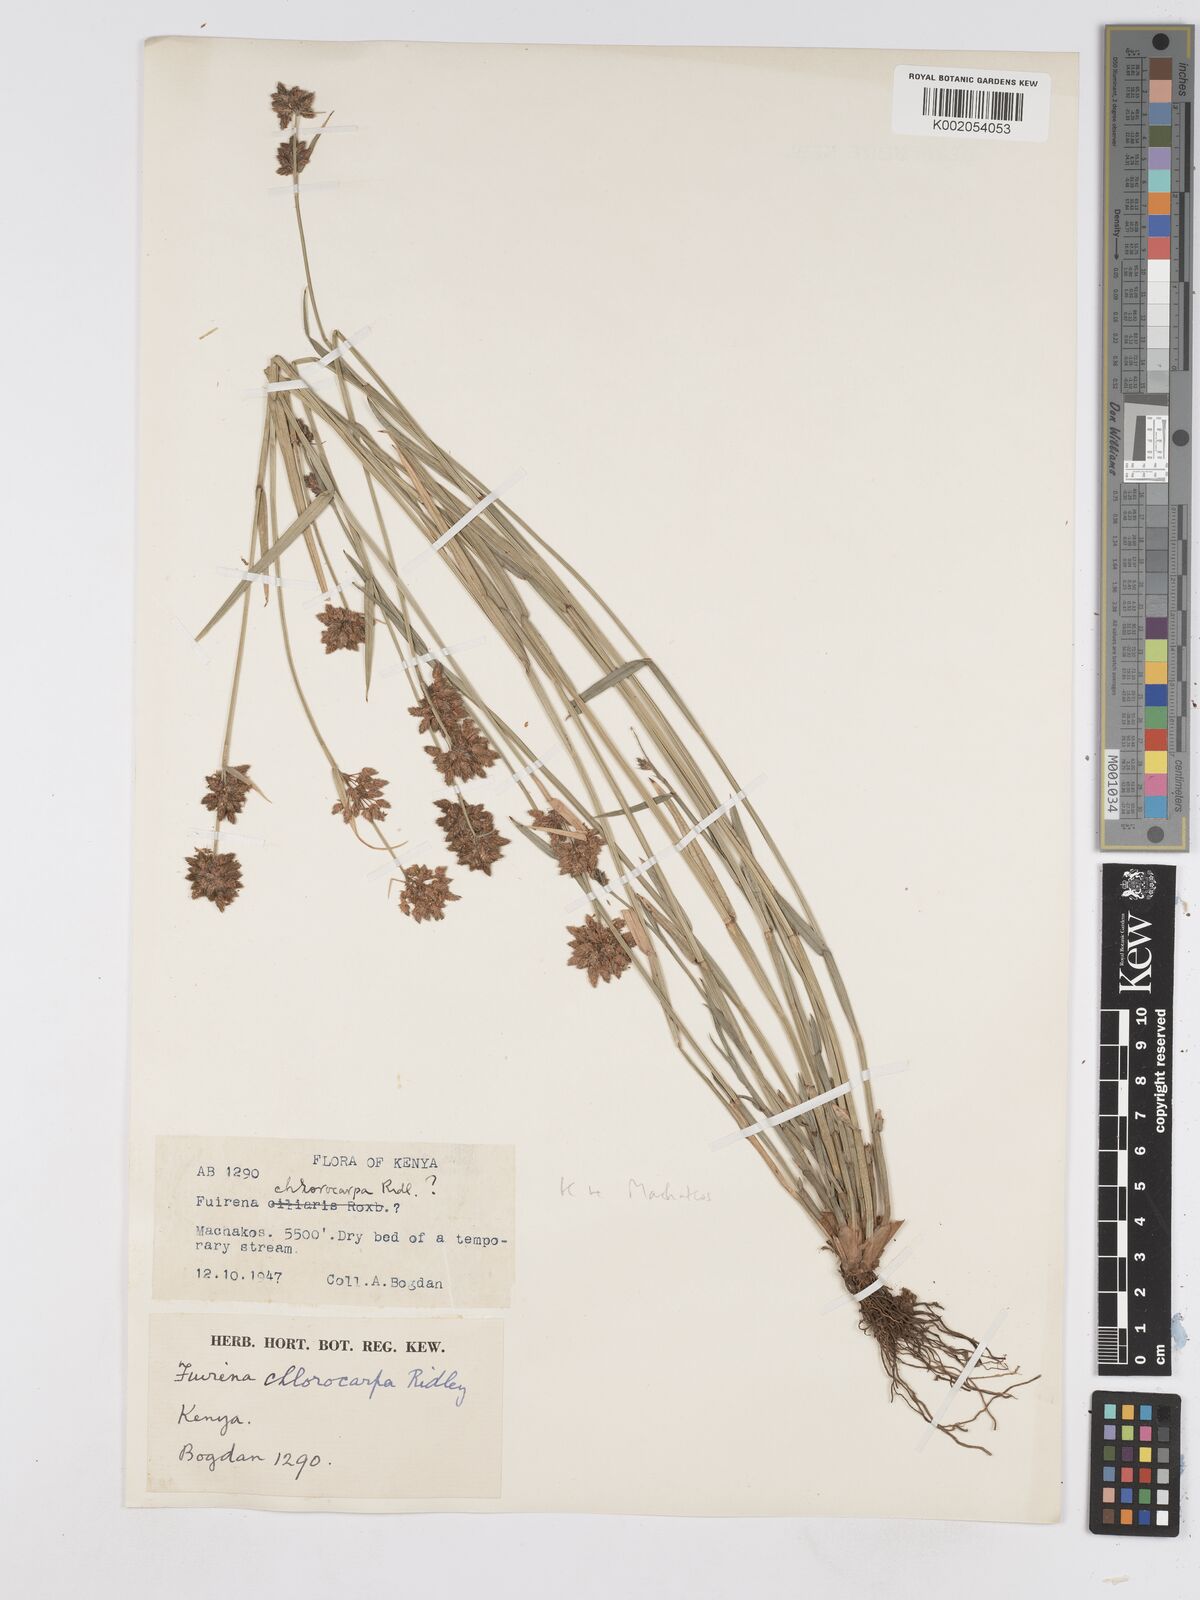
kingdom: Plantae
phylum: Tracheophyta
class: Liliopsida
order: Poales
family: Cyperaceae
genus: Fuirena
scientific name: Fuirena stricta
